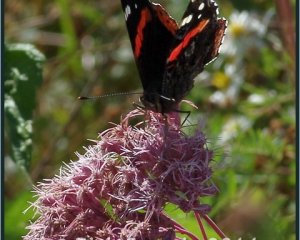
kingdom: Animalia
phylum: Arthropoda
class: Insecta
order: Lepidoptera
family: Nymphalidae
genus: Vanessa
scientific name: Vanessa atalanta
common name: Red Admiral
